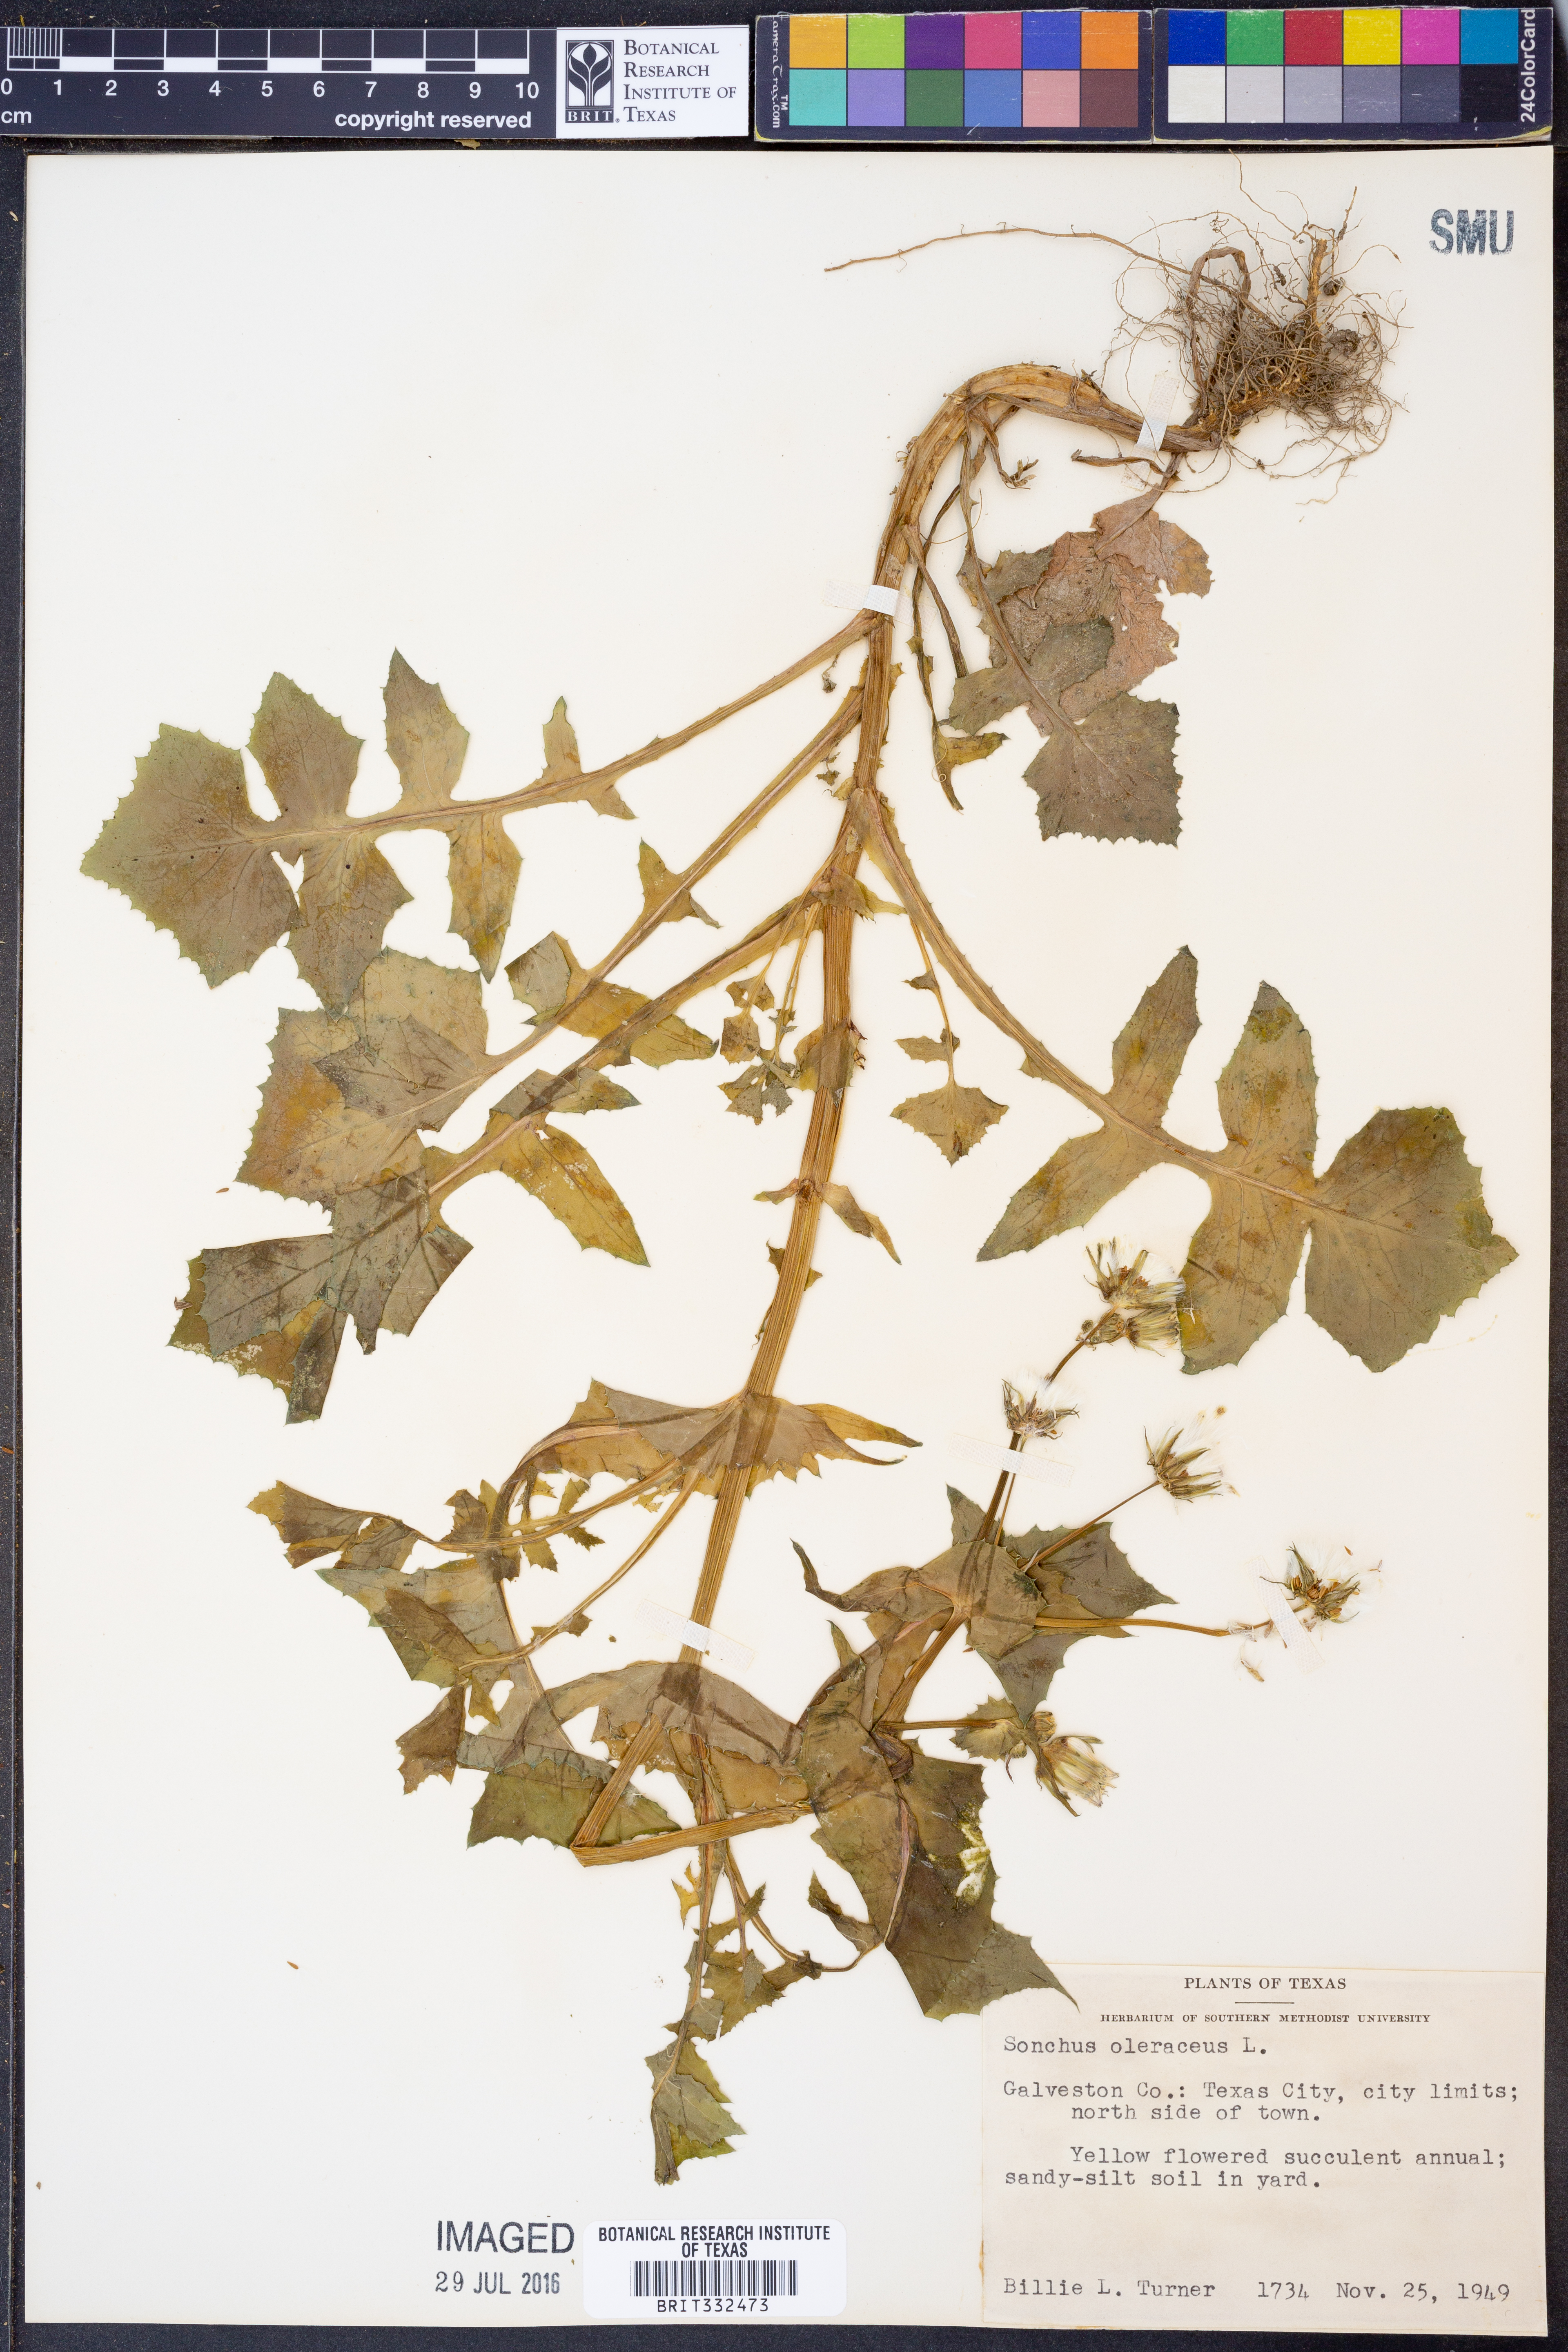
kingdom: Plantae
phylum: Tracheophyta
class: Magnoliopsida
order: Asterales
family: Asteraceae
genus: Sonchus
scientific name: Sonchus oleraceus
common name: Common sowthistle
